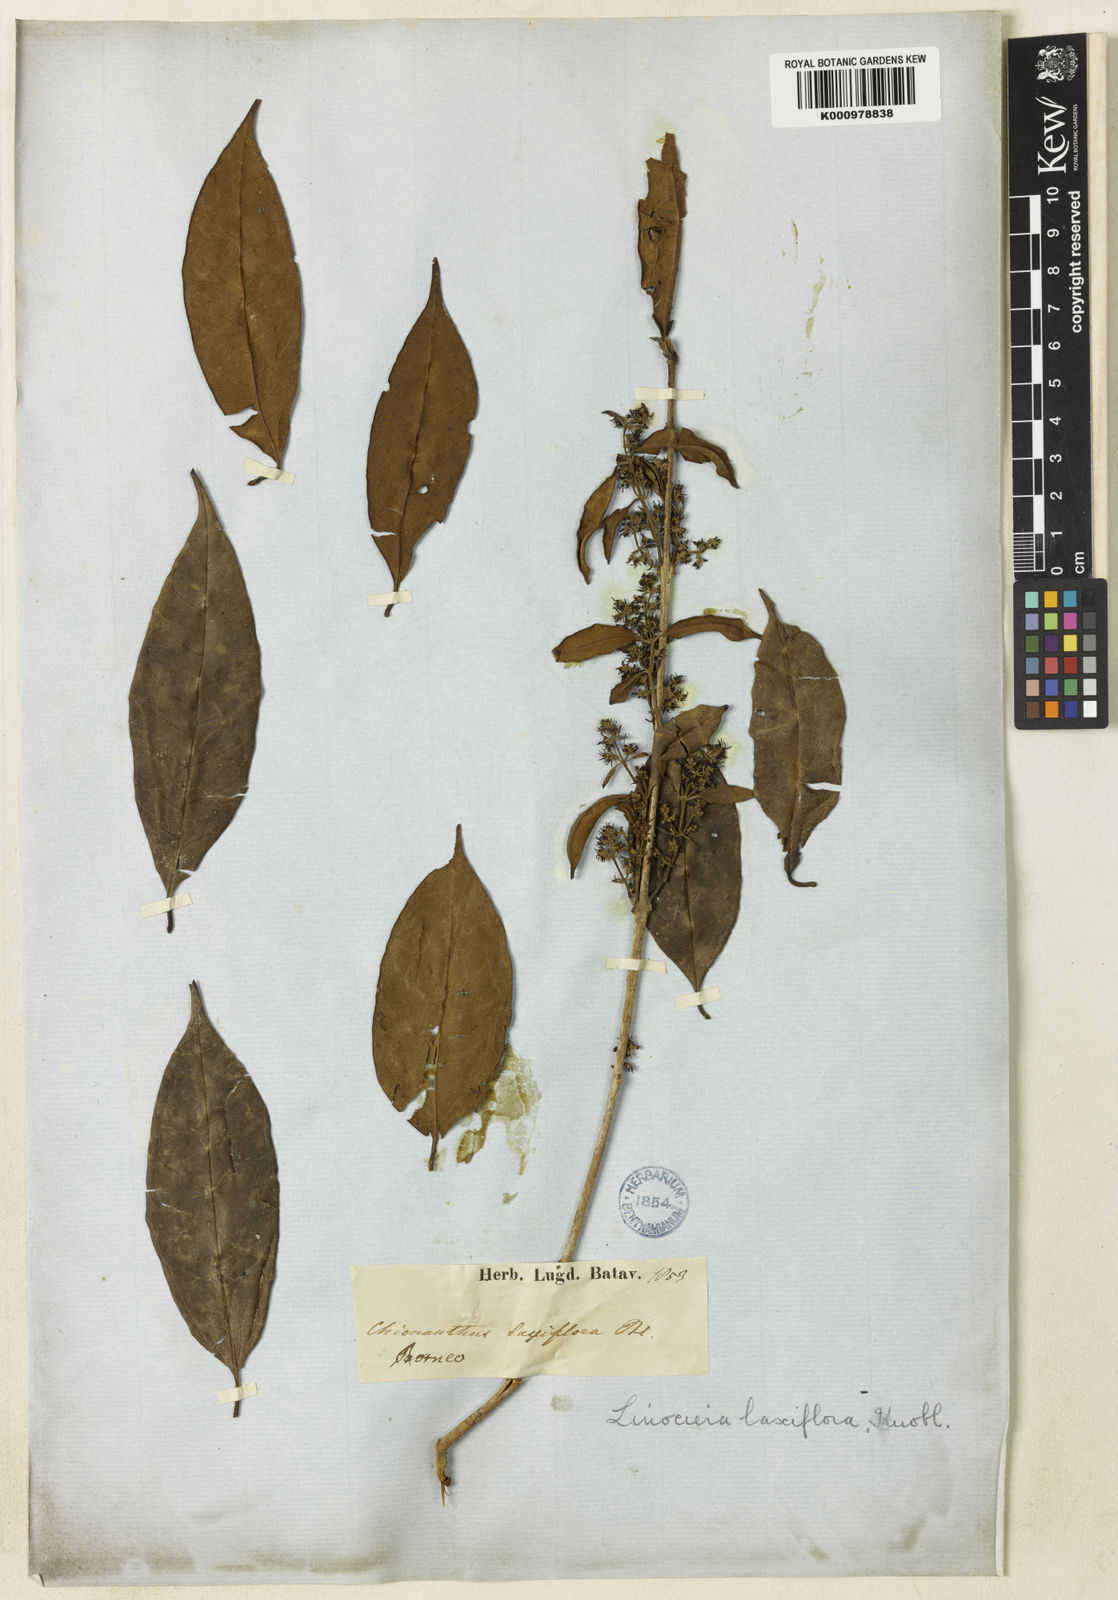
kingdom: Plantae
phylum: Tracheophyta
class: Magnoliopsida
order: Lamiales
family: Oleaceae
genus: Chionanthus
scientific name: Chionanthus polygamus
